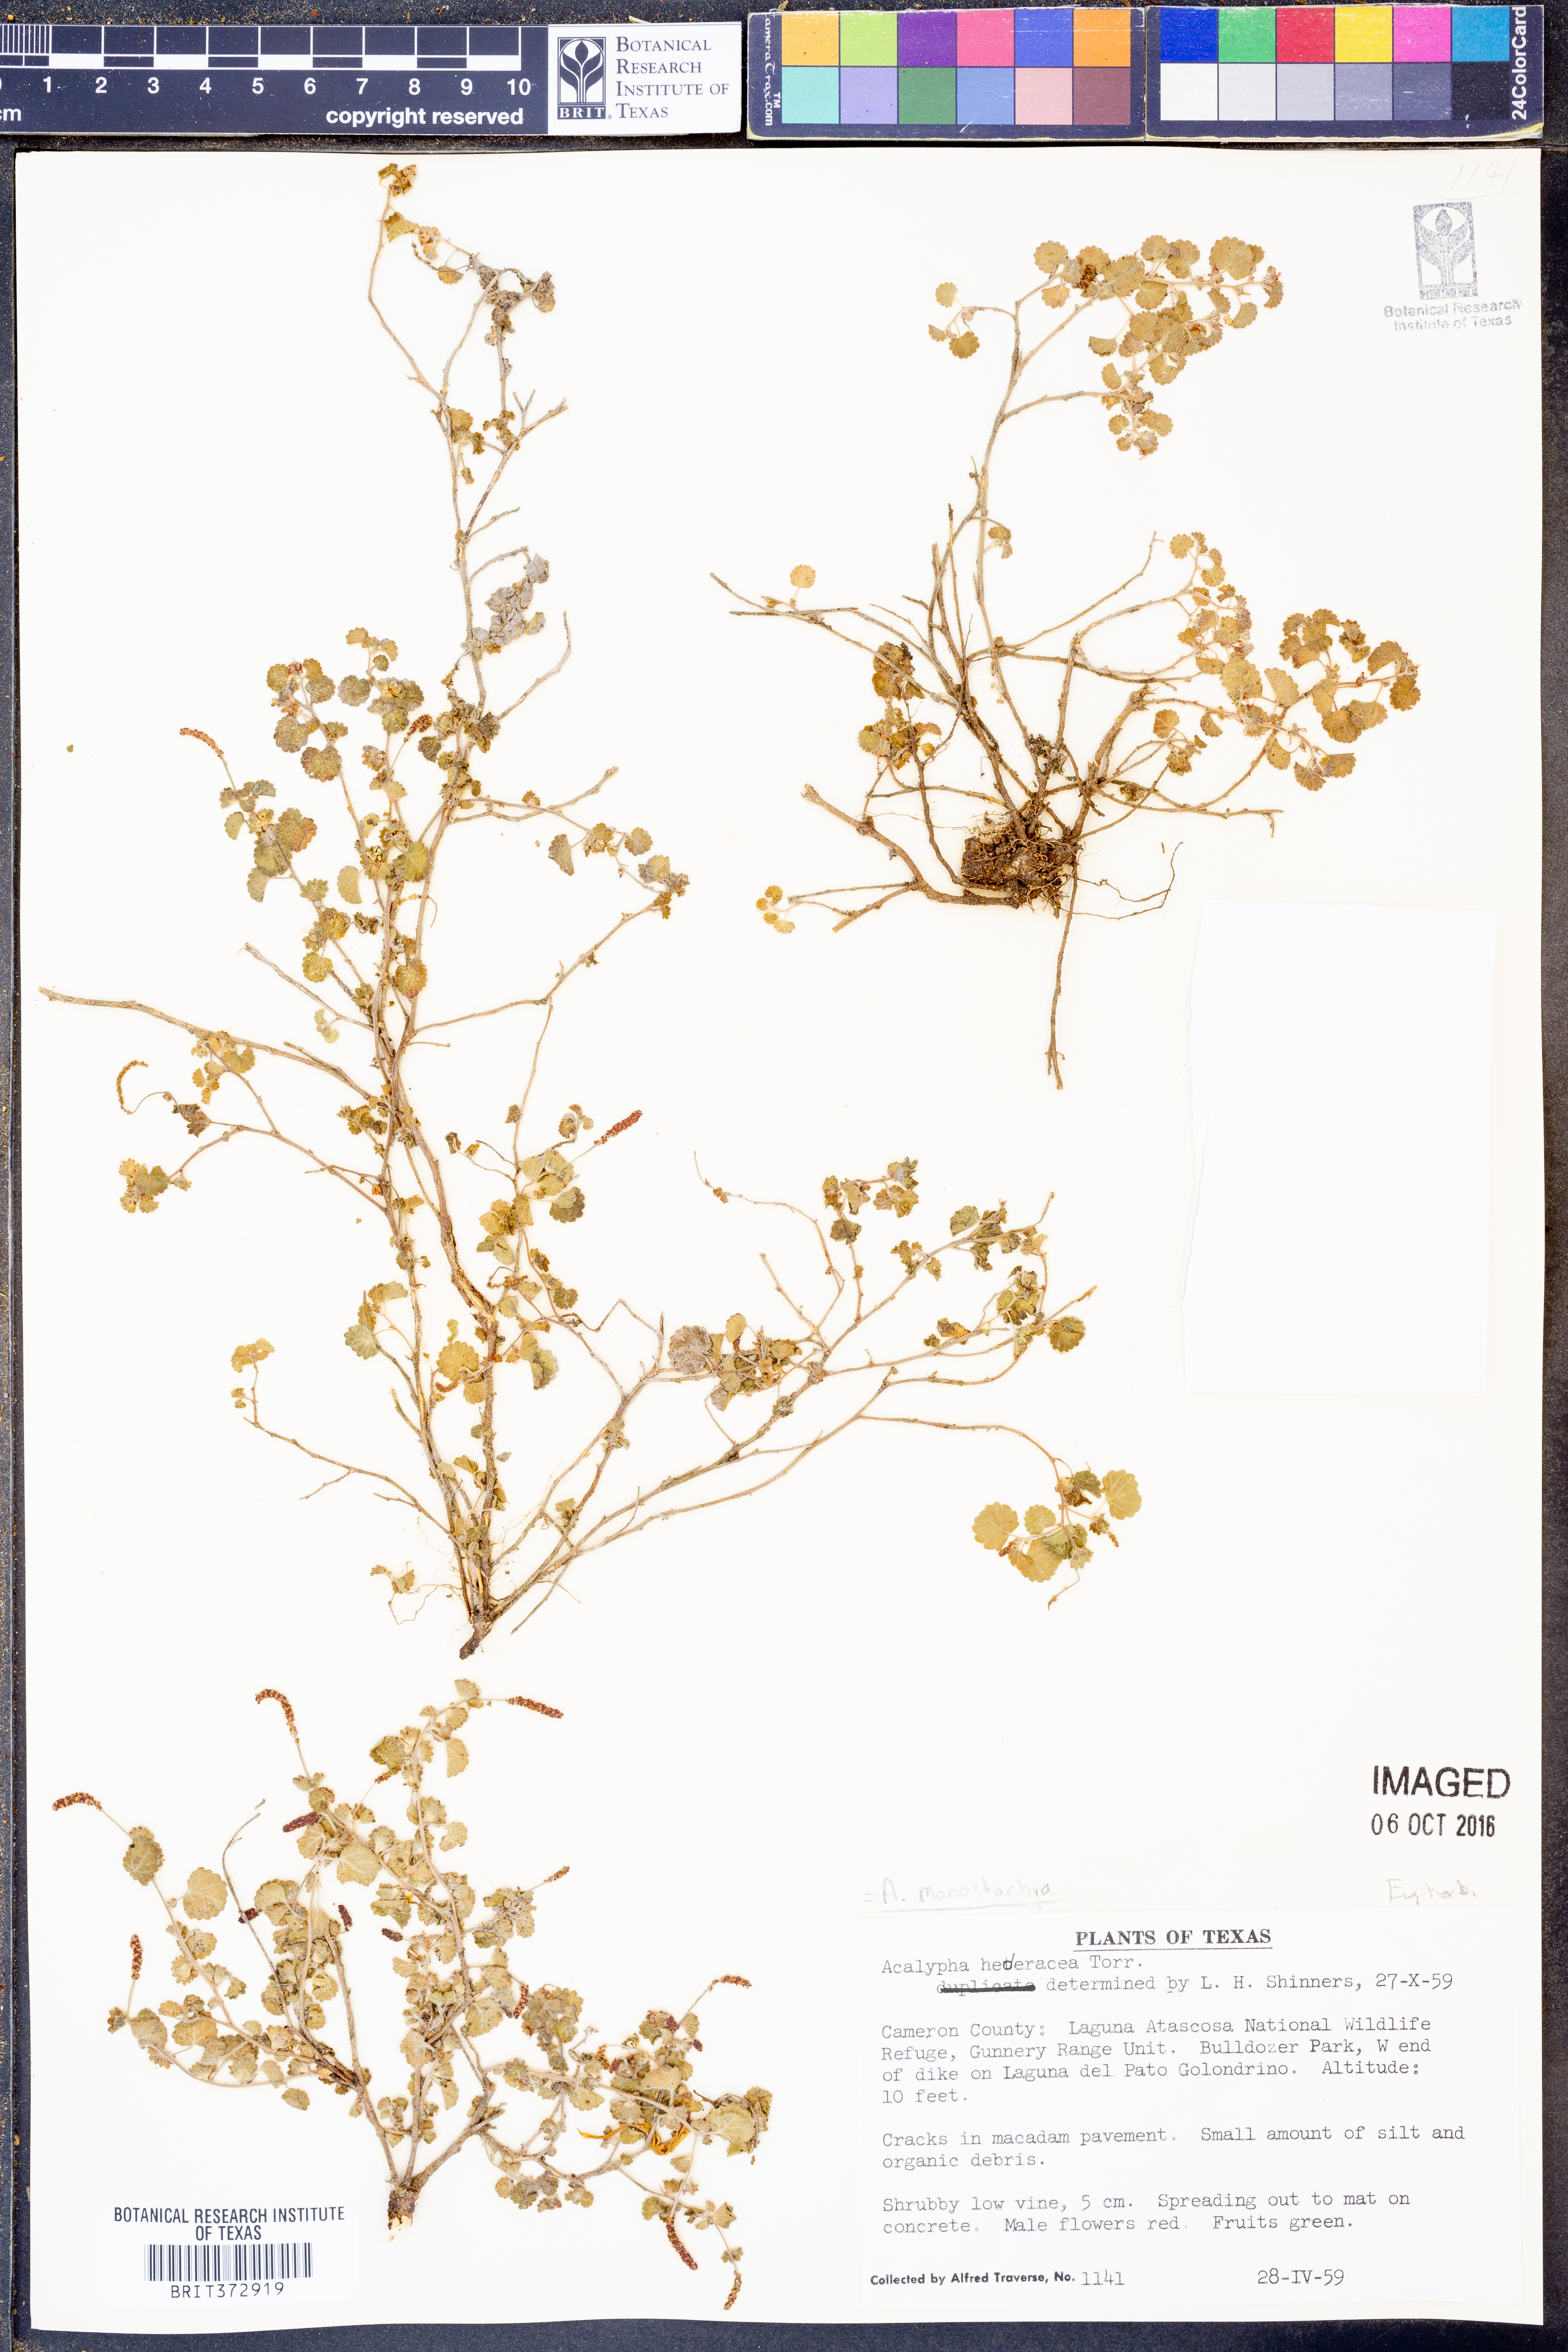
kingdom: Plantae
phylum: Tracheophyta
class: Magnoliopsida
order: Malpighiales
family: Euphorbiaceae
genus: Acalypha
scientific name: Acalypha monostachya
